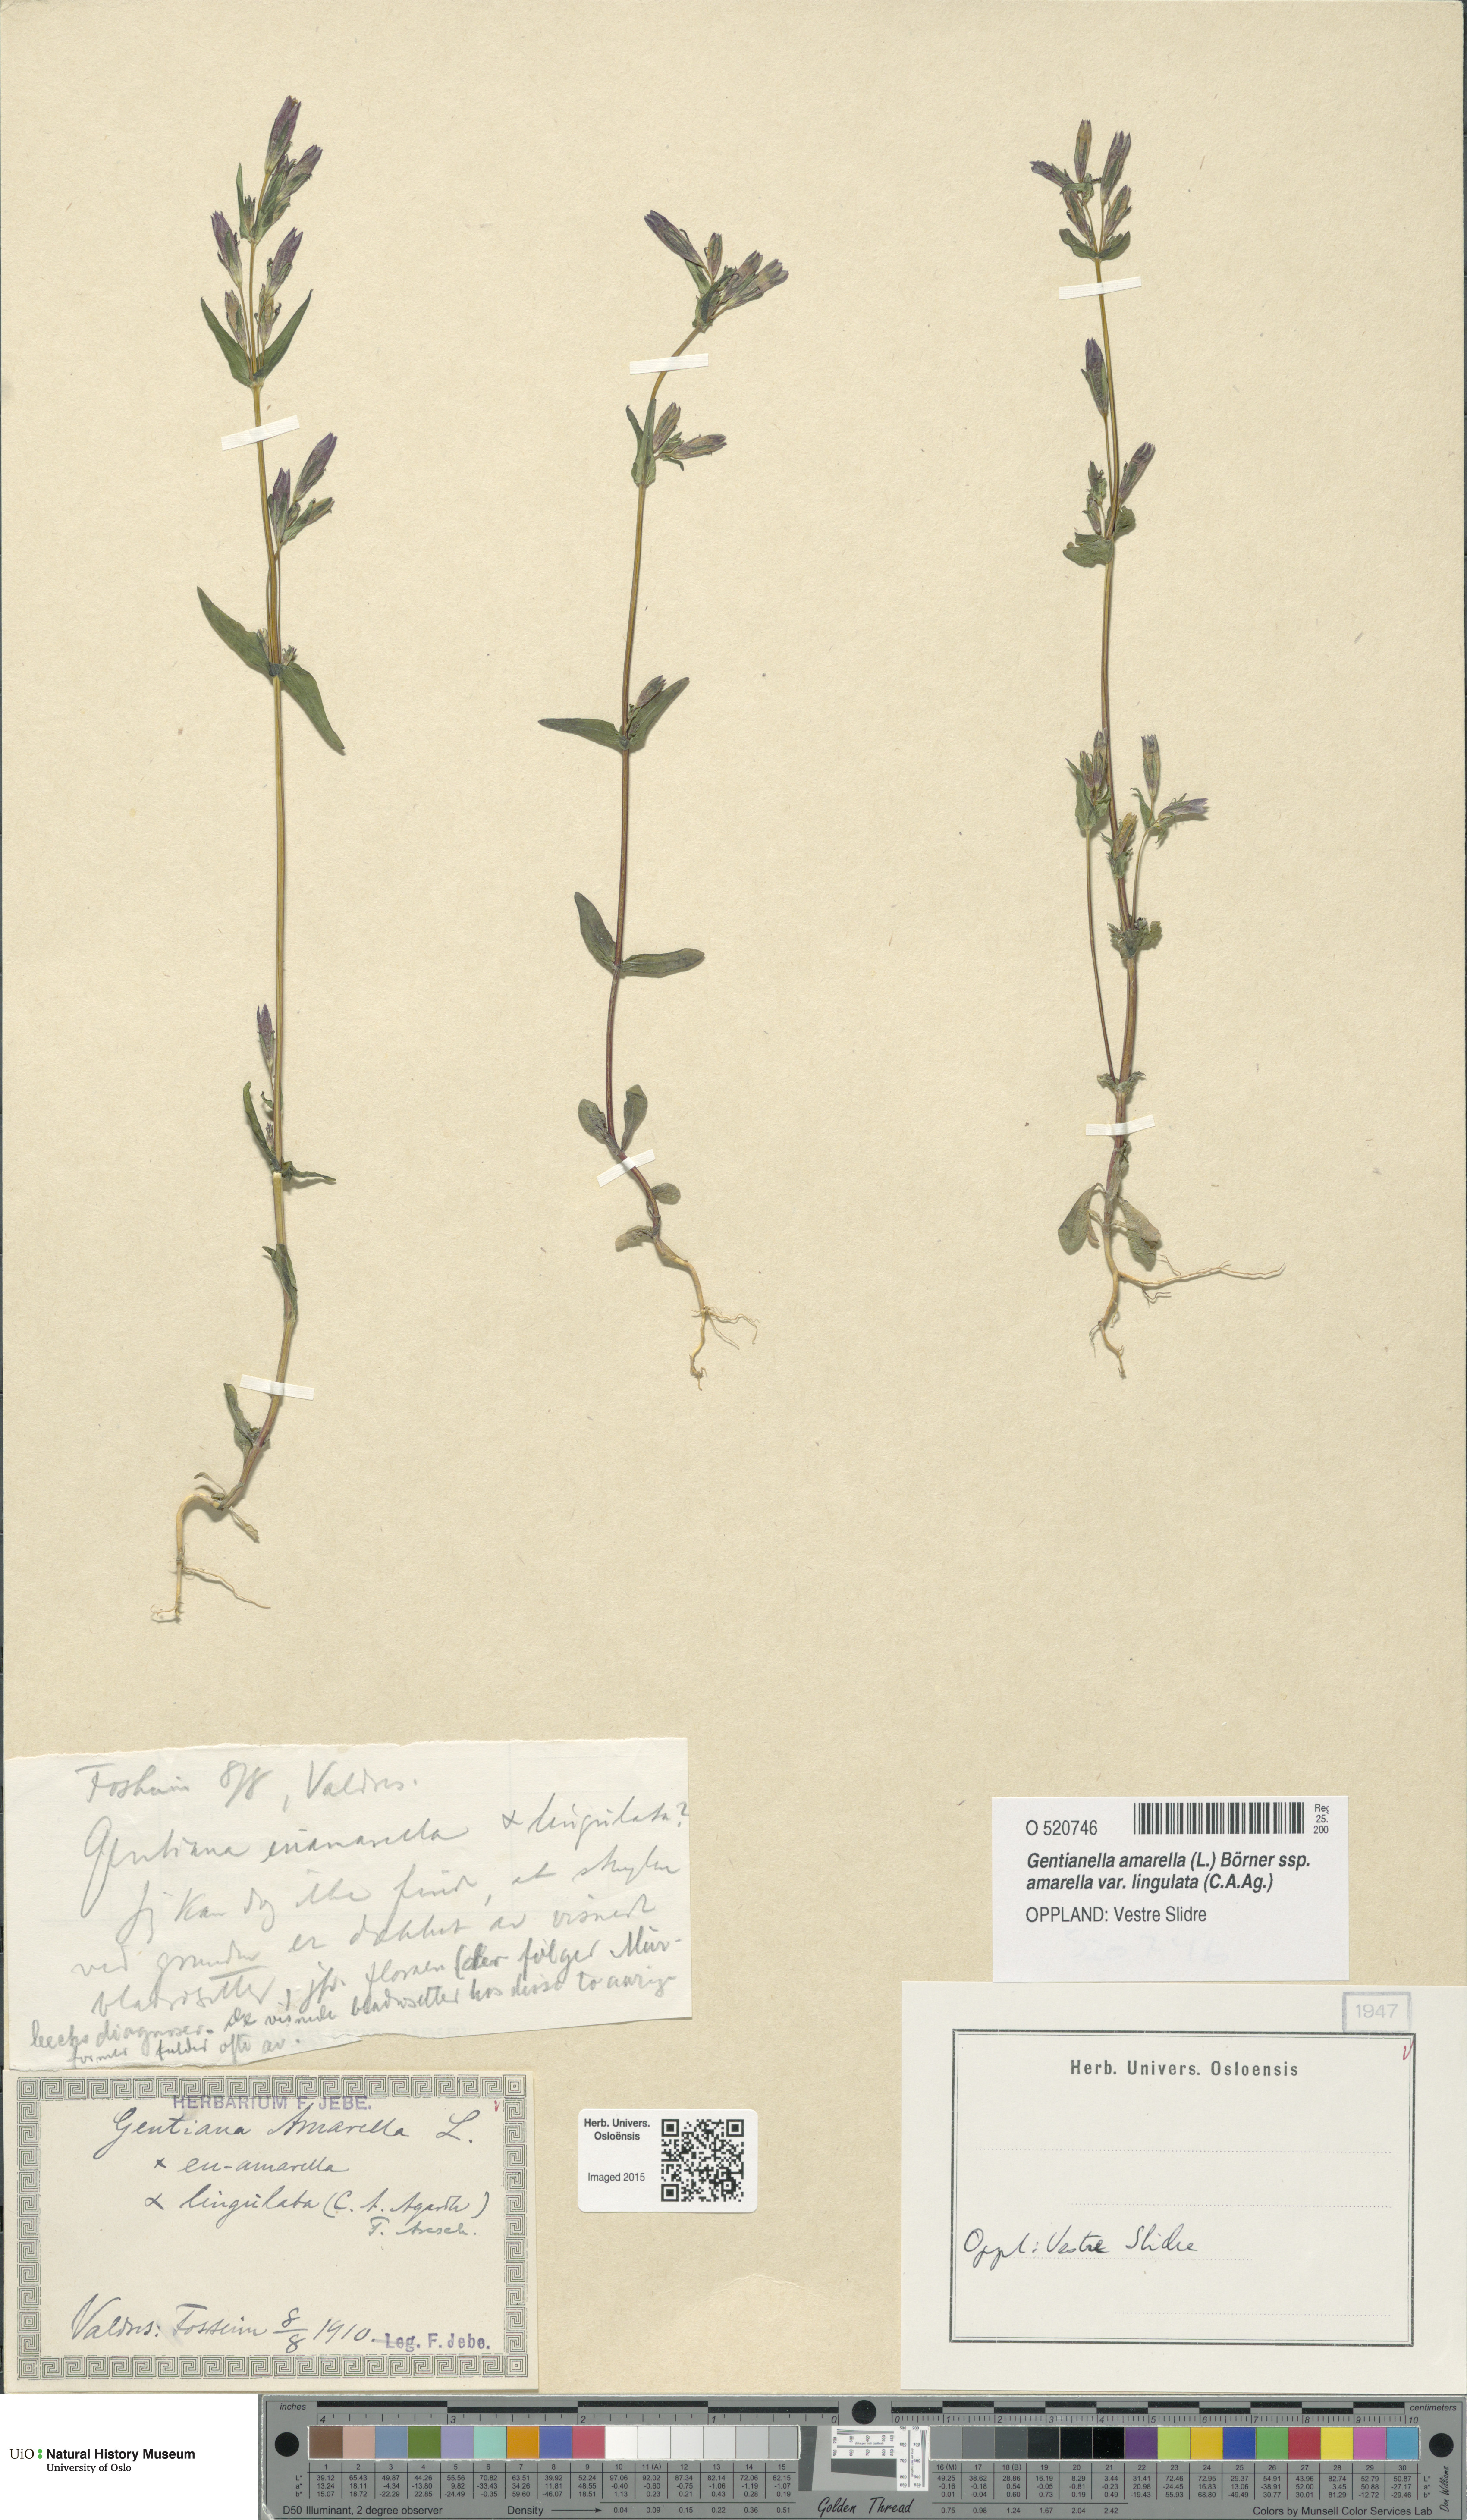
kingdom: Plantae
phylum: Tracheophyta
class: Magnoliopsida
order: Gentianales
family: Gentianaceae
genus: Gentianella
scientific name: Gentianella amarella
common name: Autumn gentian
